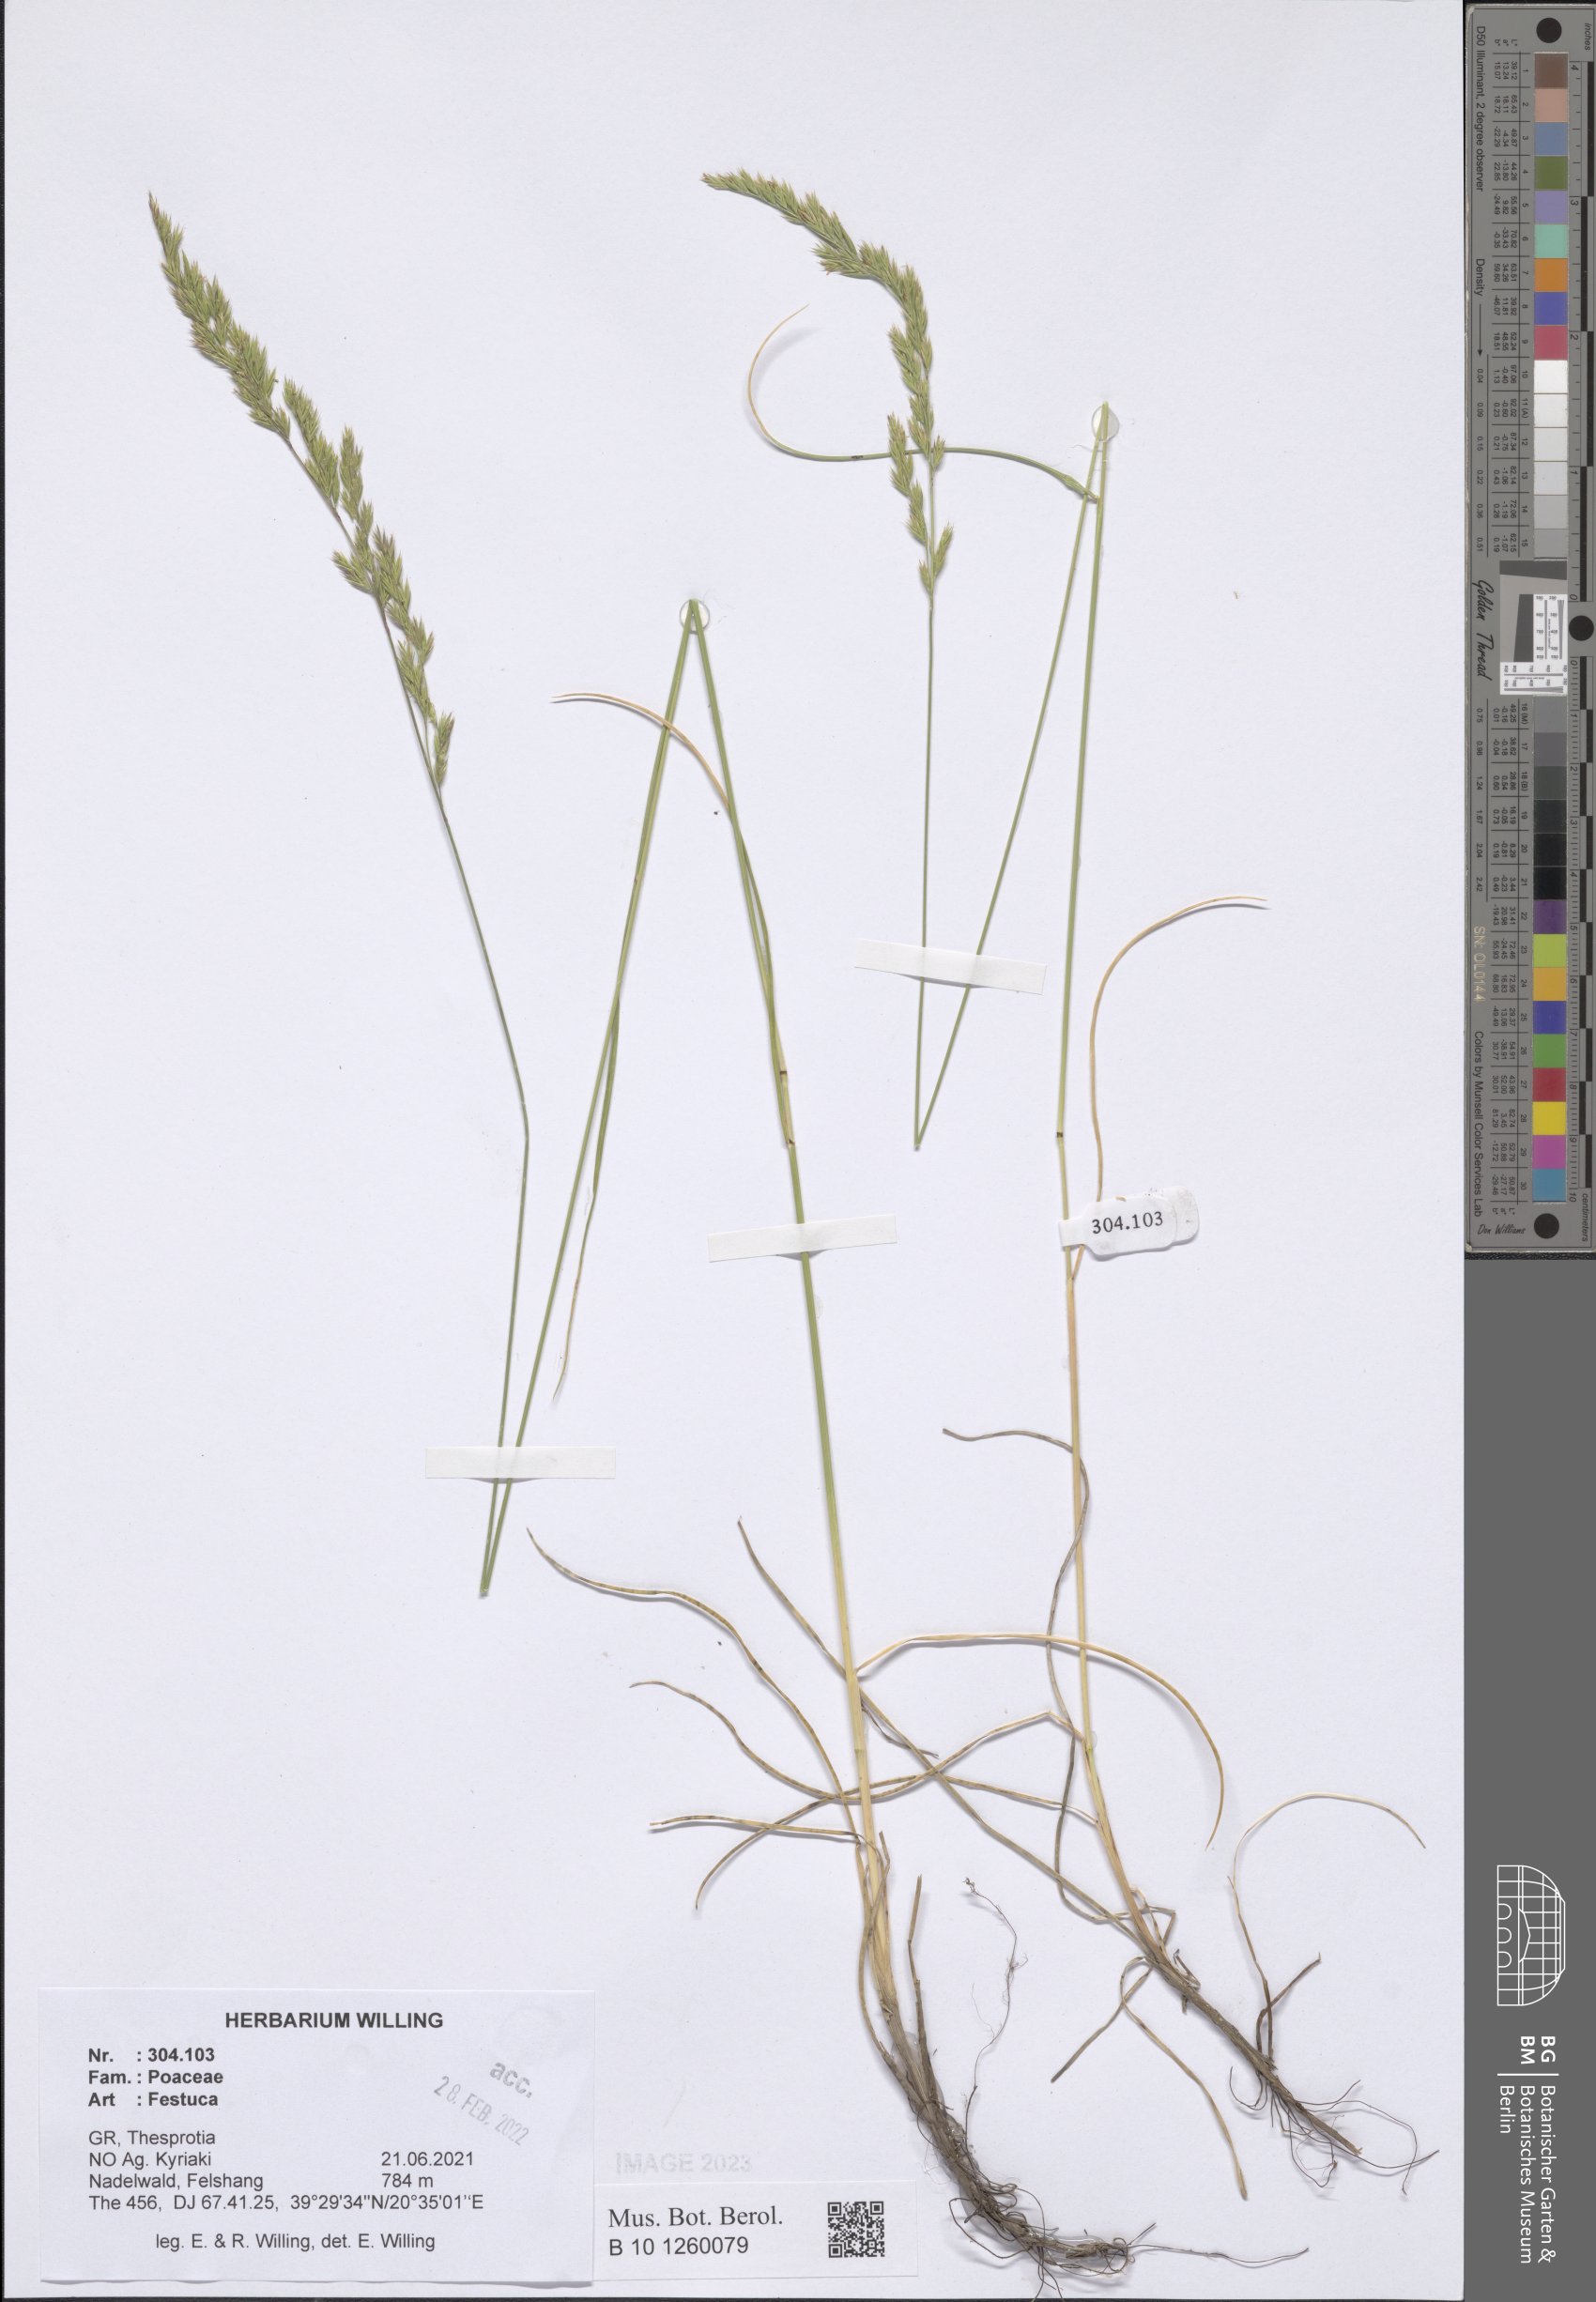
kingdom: Plantae
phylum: Tracheophyta
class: Liliopsida
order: Poales
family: Poaceae
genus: Festuca
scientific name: Festuca
